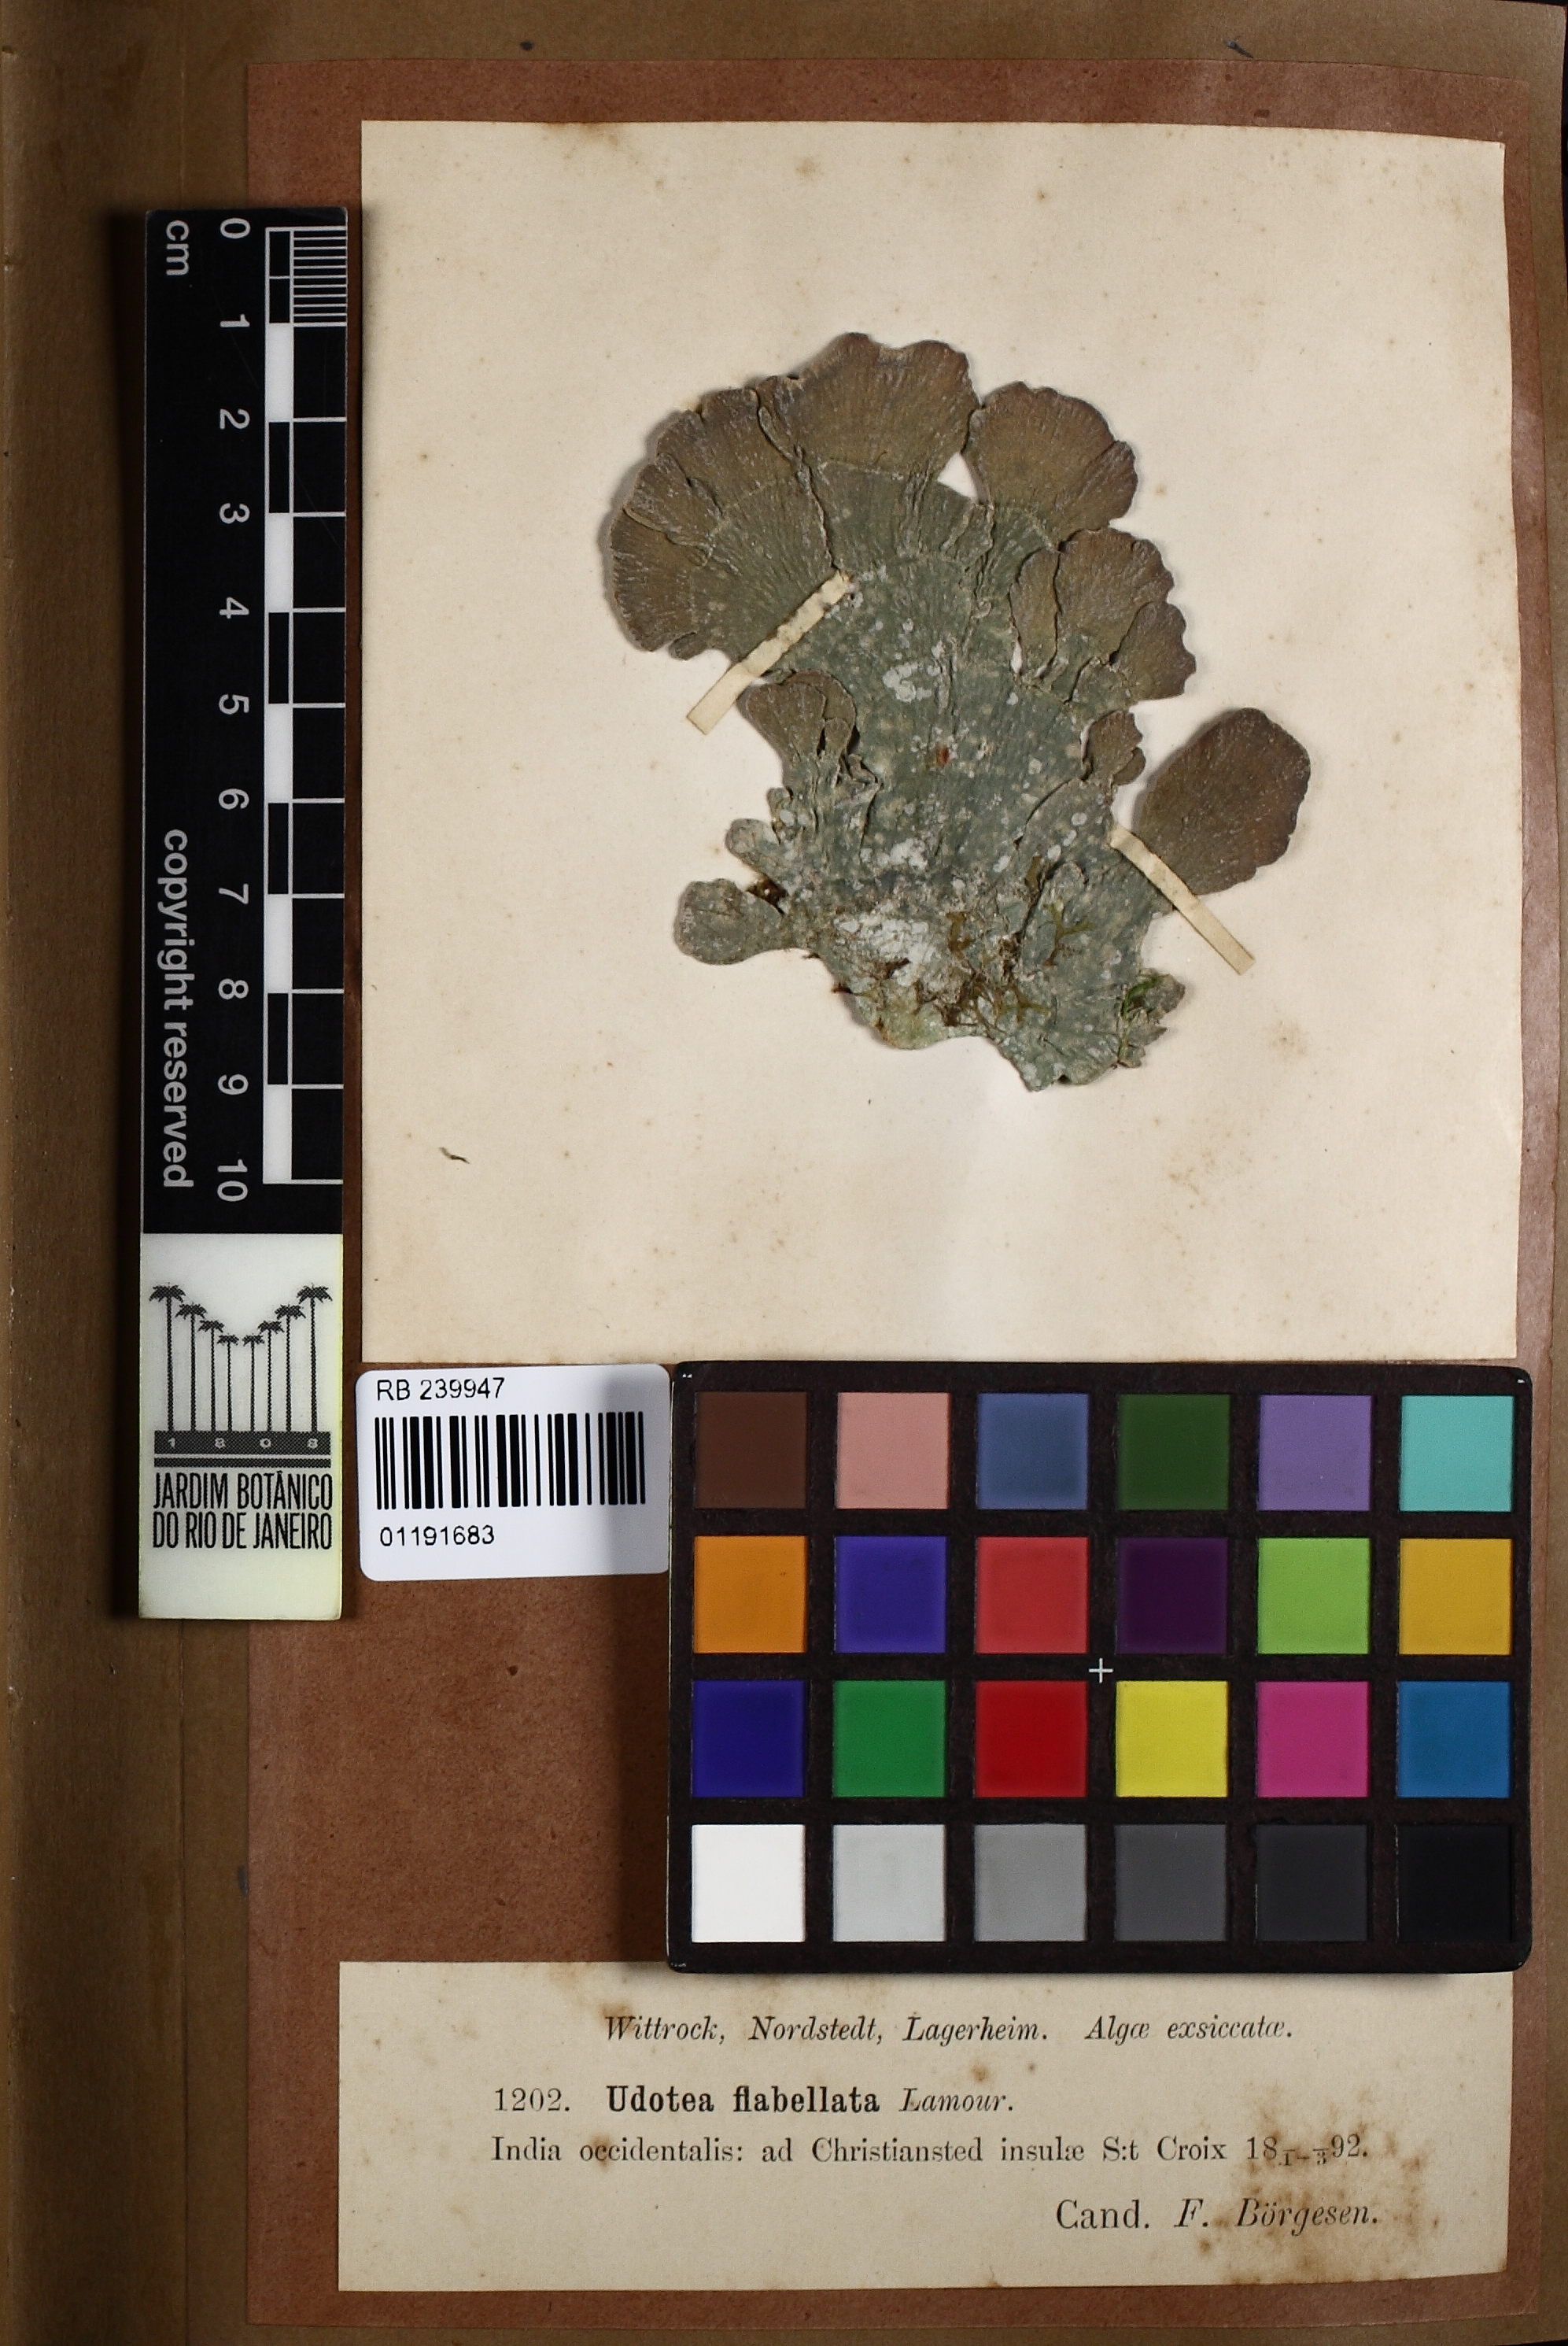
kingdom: Plantae
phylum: Chlorophyta
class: Ulvophyceae
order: Bryopsidales
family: Udoteaceae
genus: Udotea
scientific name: Udotea flabellum
